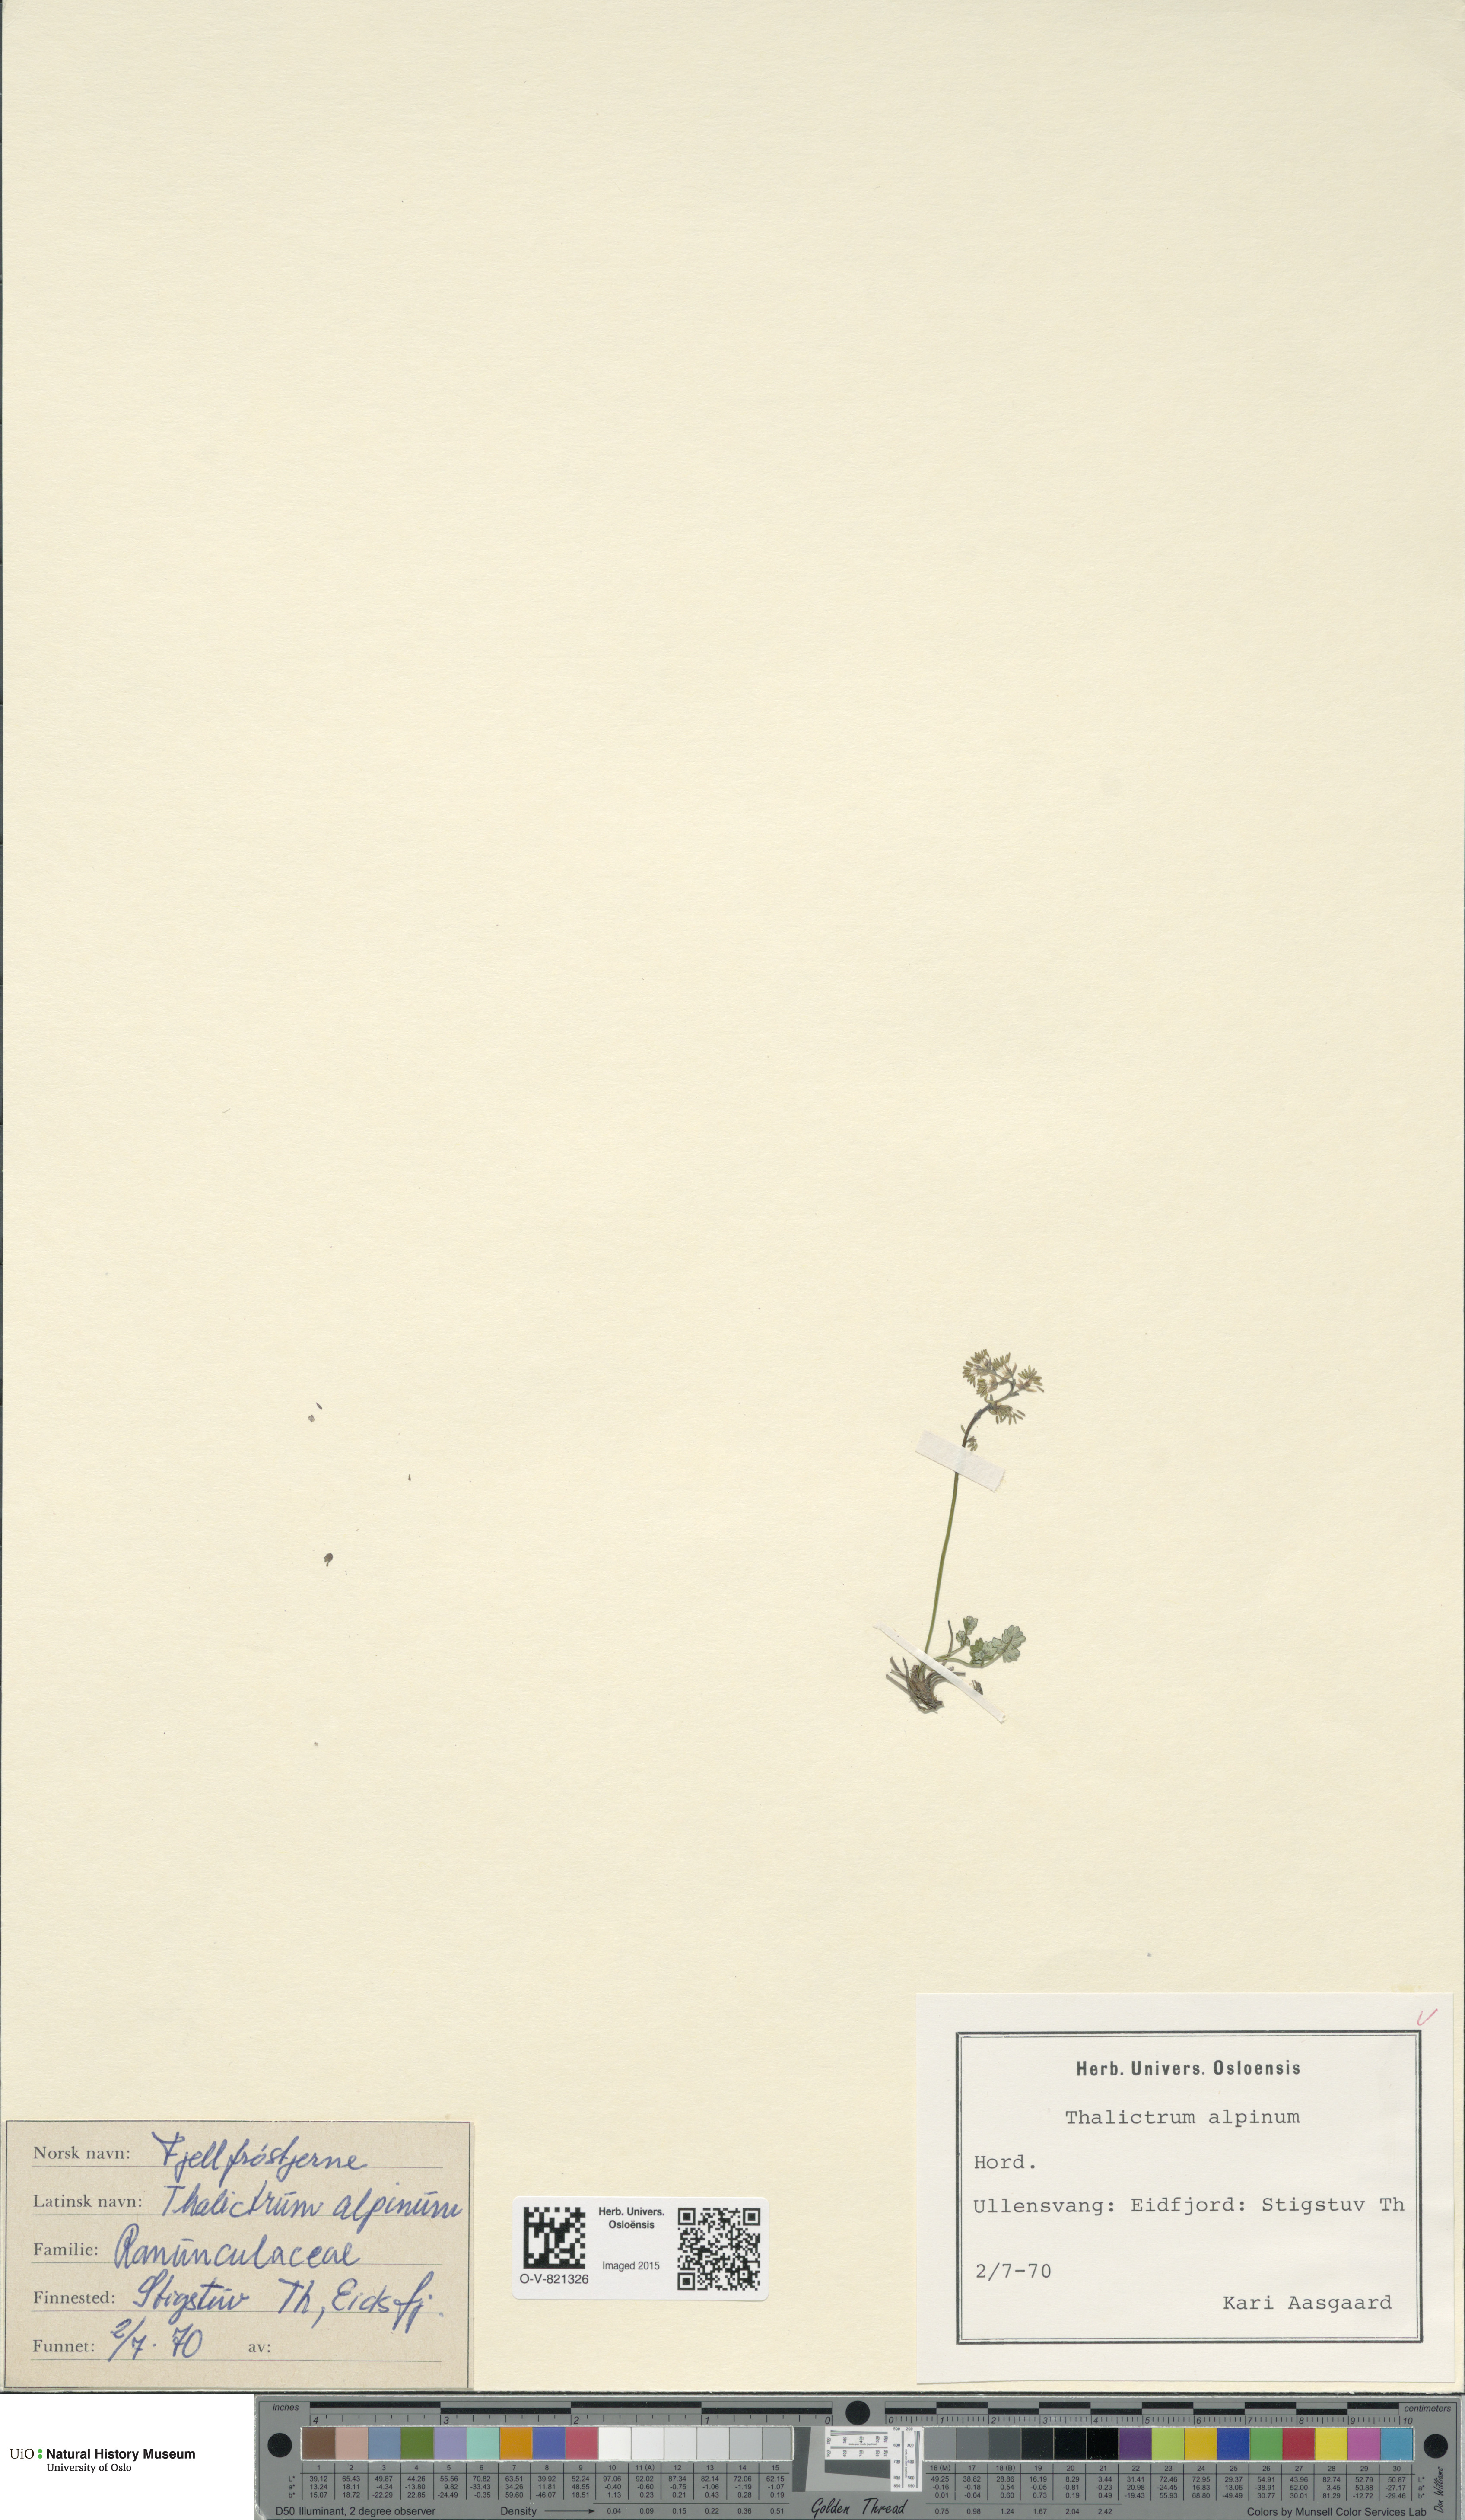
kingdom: Plantae
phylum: Tracheophyta
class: Magnoliopsida
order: Ranunculales
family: Ranunculaceae
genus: Thalictrum
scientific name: Thalictrum alpinum
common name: Alpine meadow-rue
